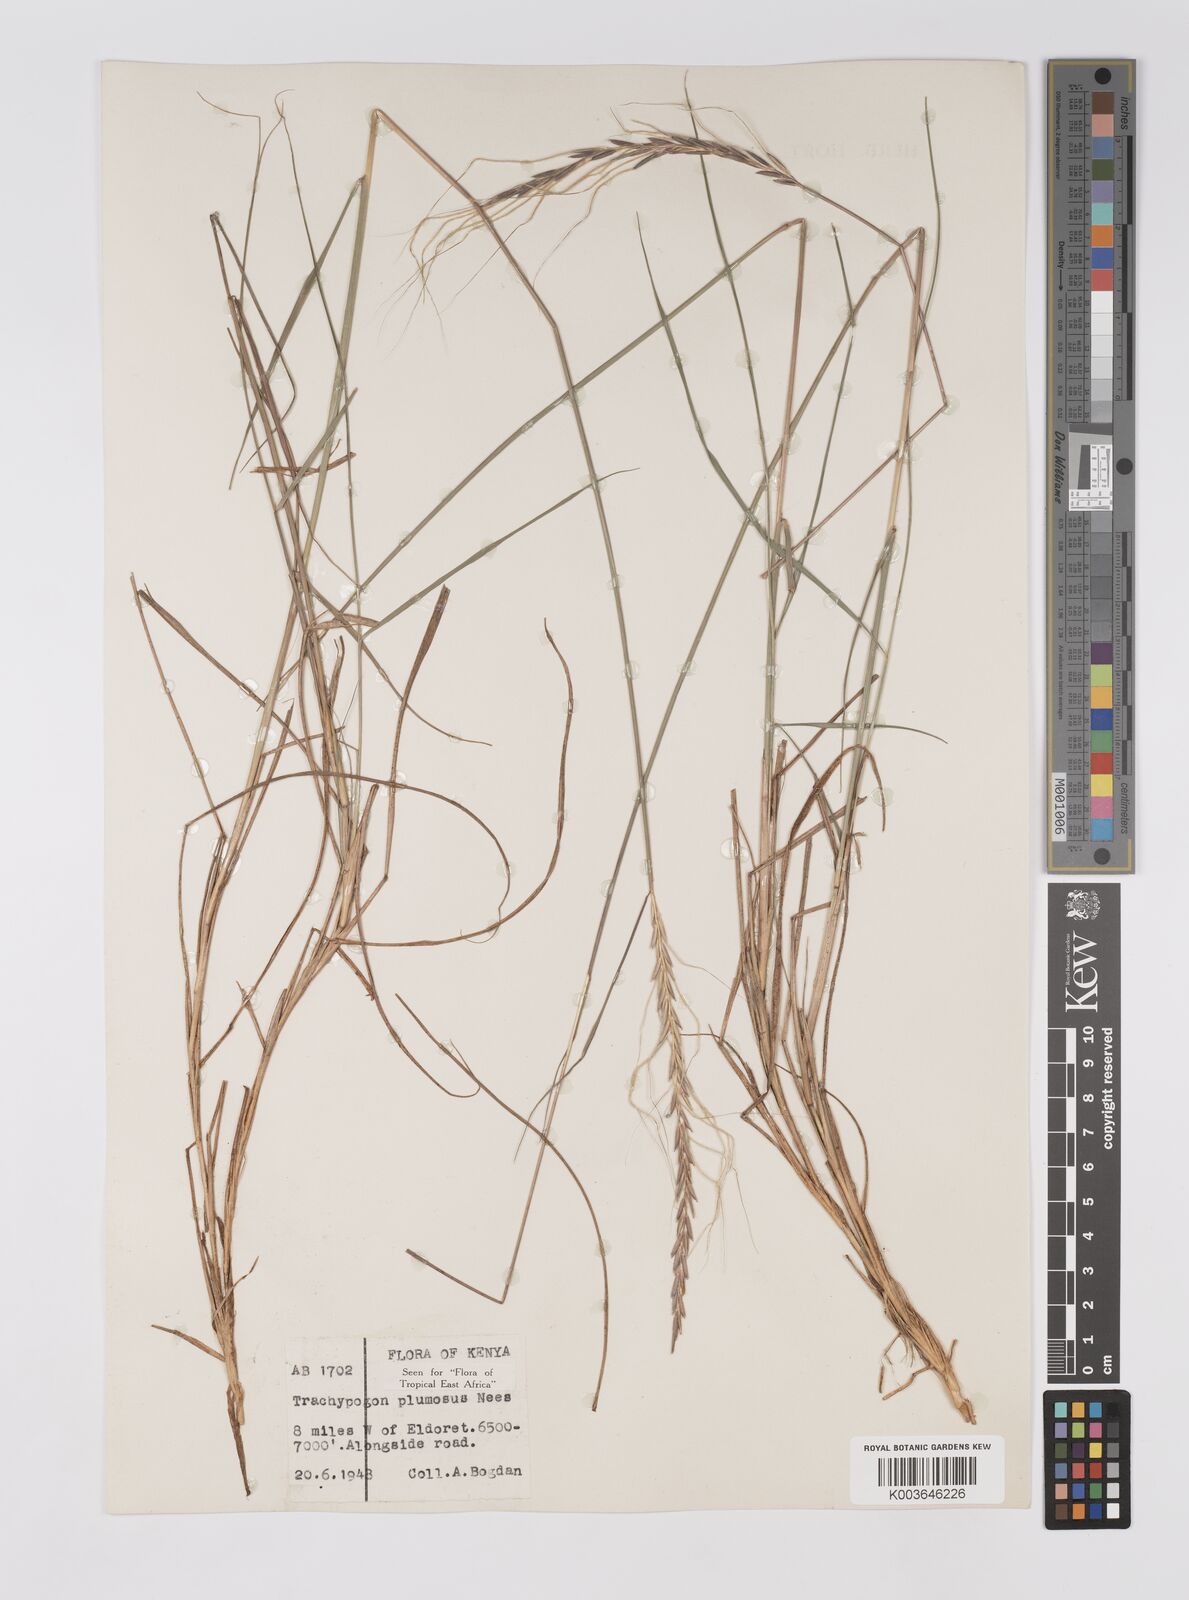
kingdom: Plantae
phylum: Tracheophyta
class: Liliopsida
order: Poales
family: Poaceae
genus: Trachypogon
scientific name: Trachypogon spicatus
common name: Crinkle-awn
